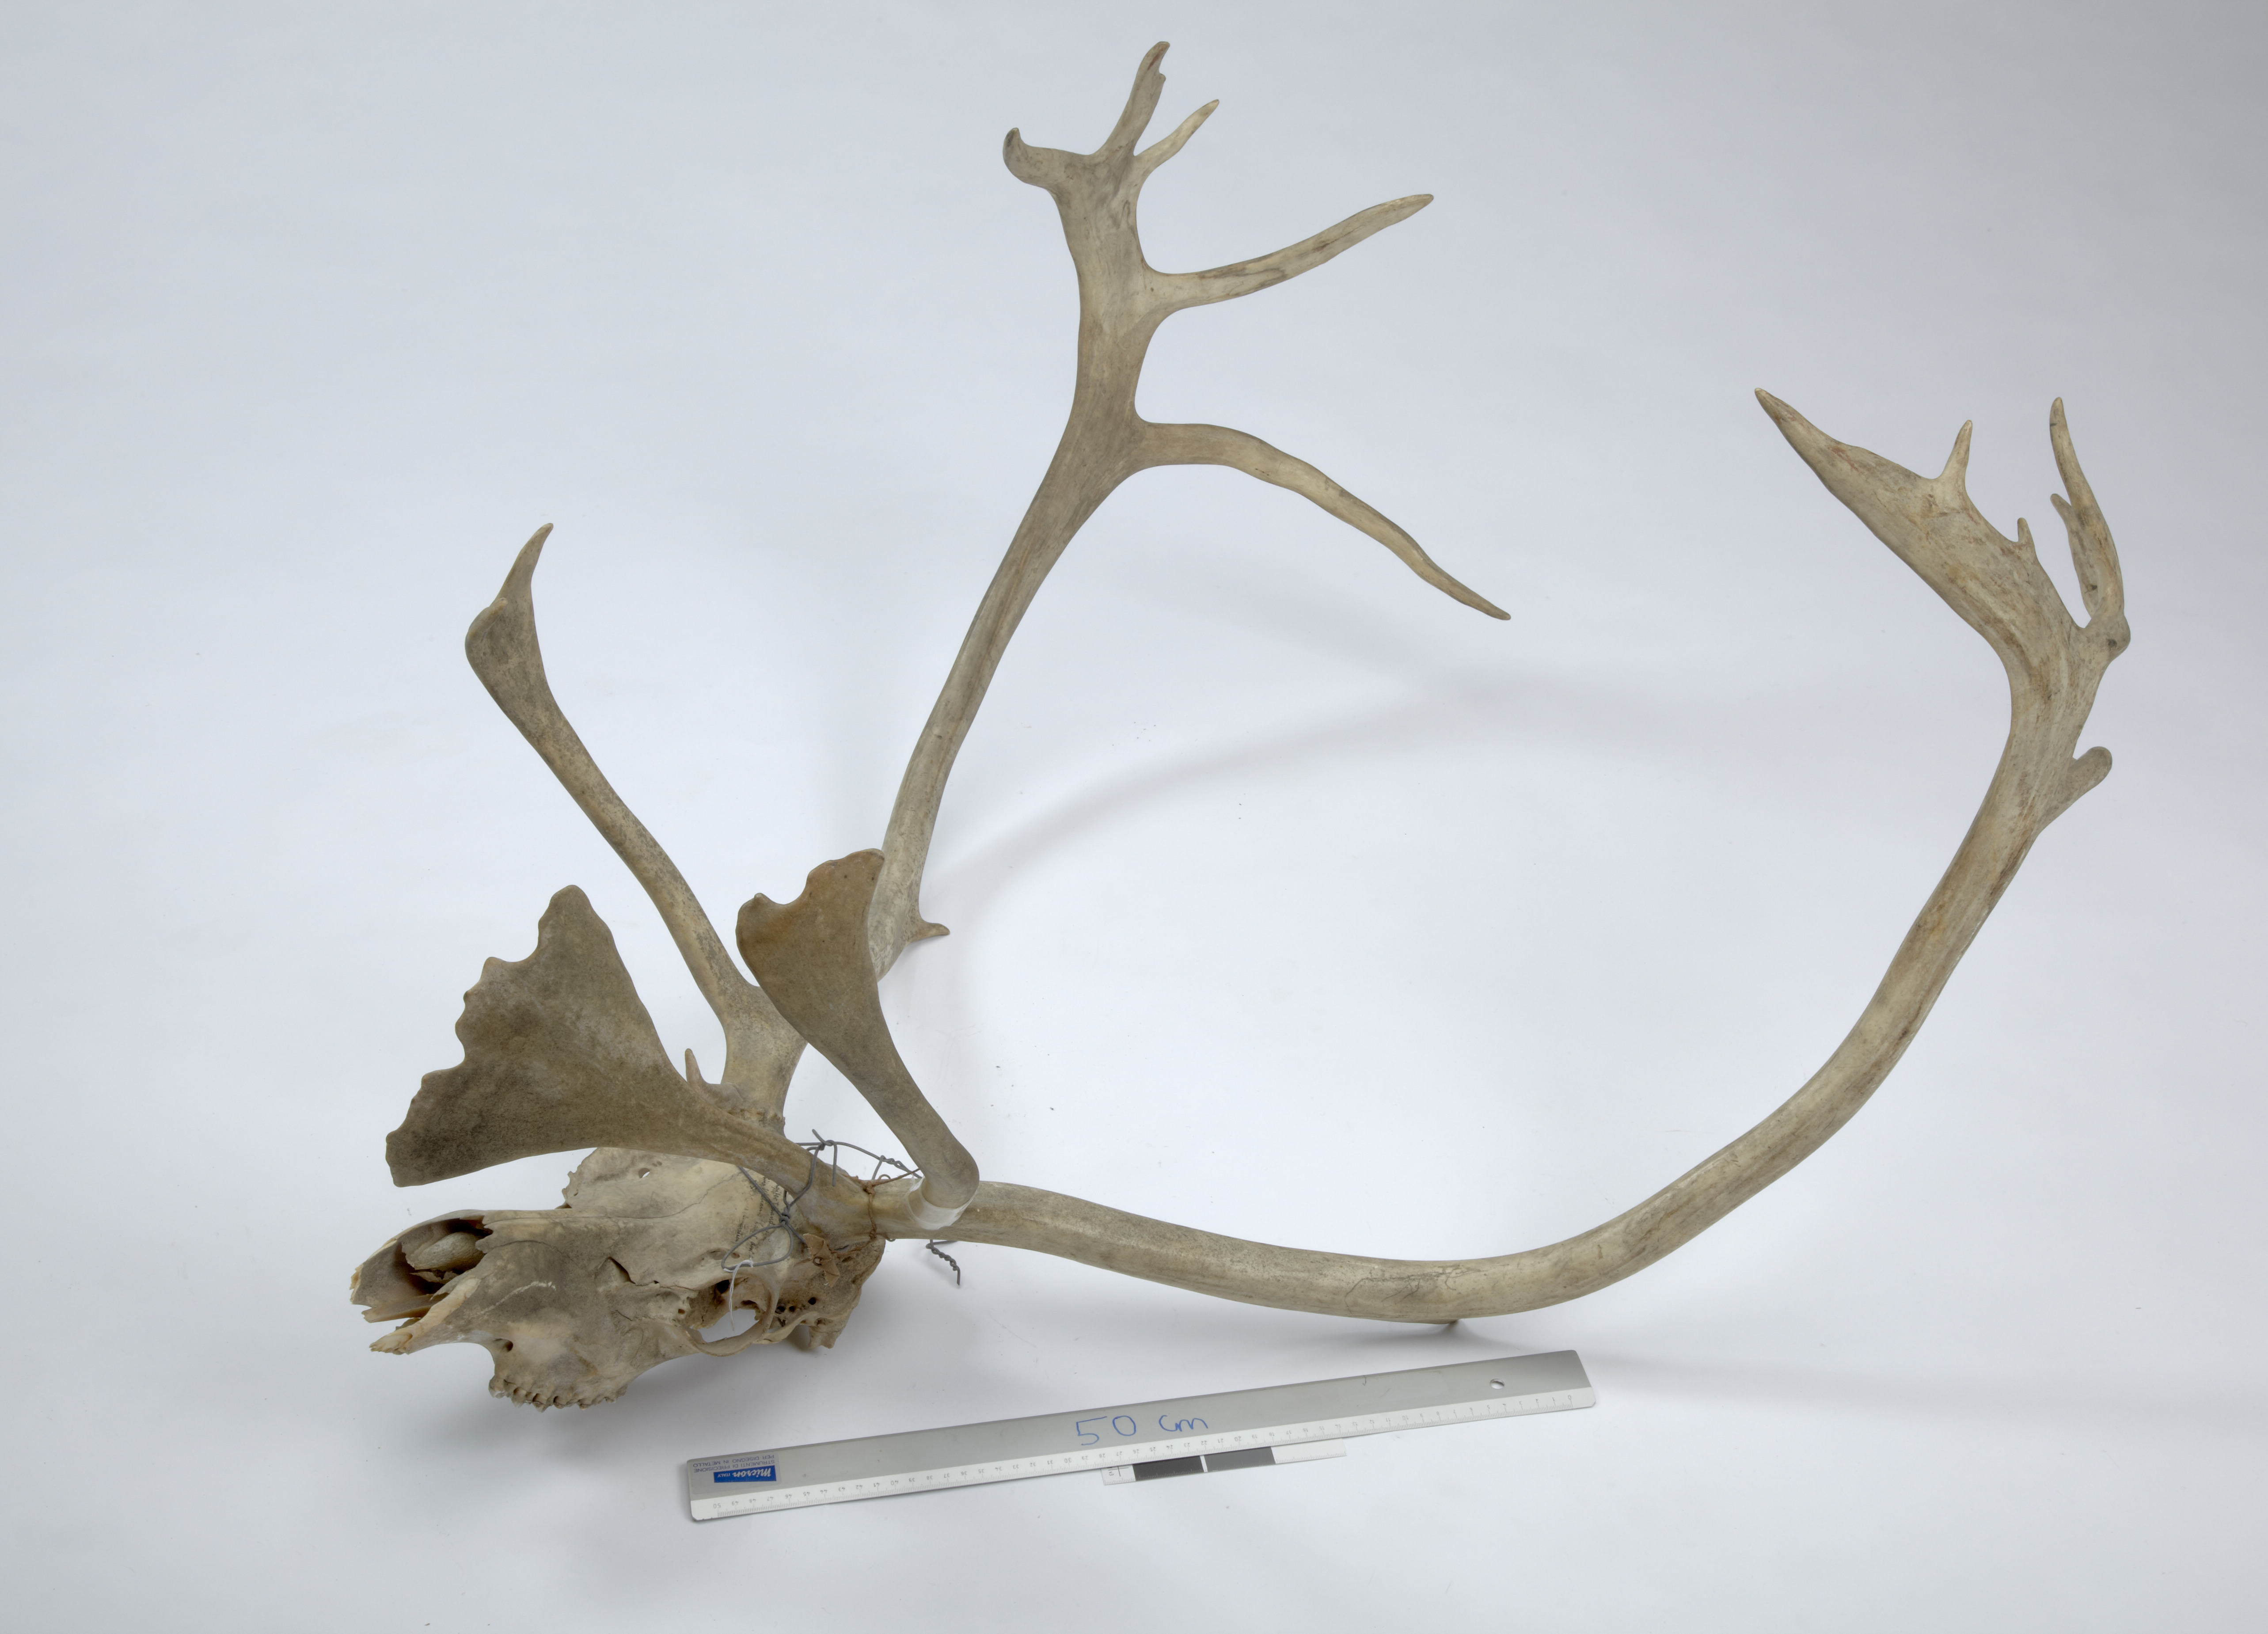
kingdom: Animalia
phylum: Chordata
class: Mammalia
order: Artiodactyla
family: Cervidae
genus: Rangifer
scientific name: Rangifer tarandus
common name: Reindeer
